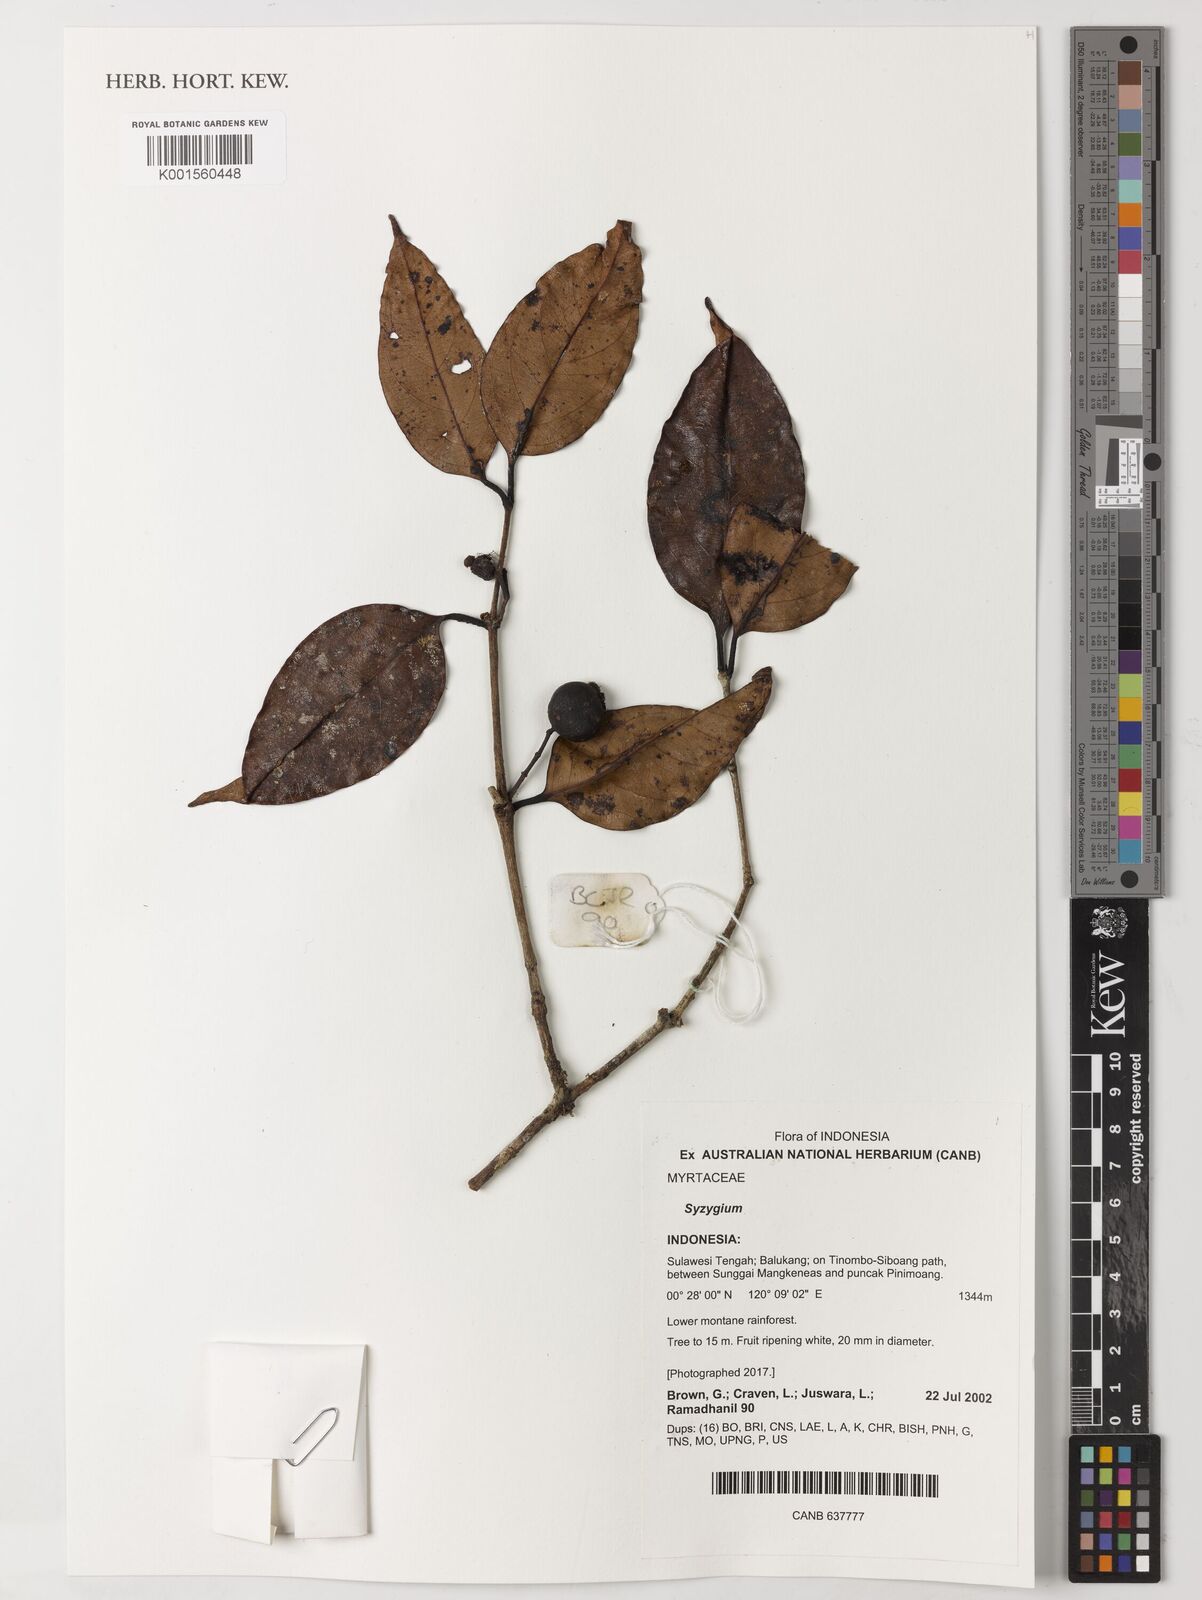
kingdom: Plantae
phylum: Tracheophyta
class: Magnoliopsida
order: Myrtales
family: Myrtaceae
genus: Syzygium
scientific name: Syzygium
